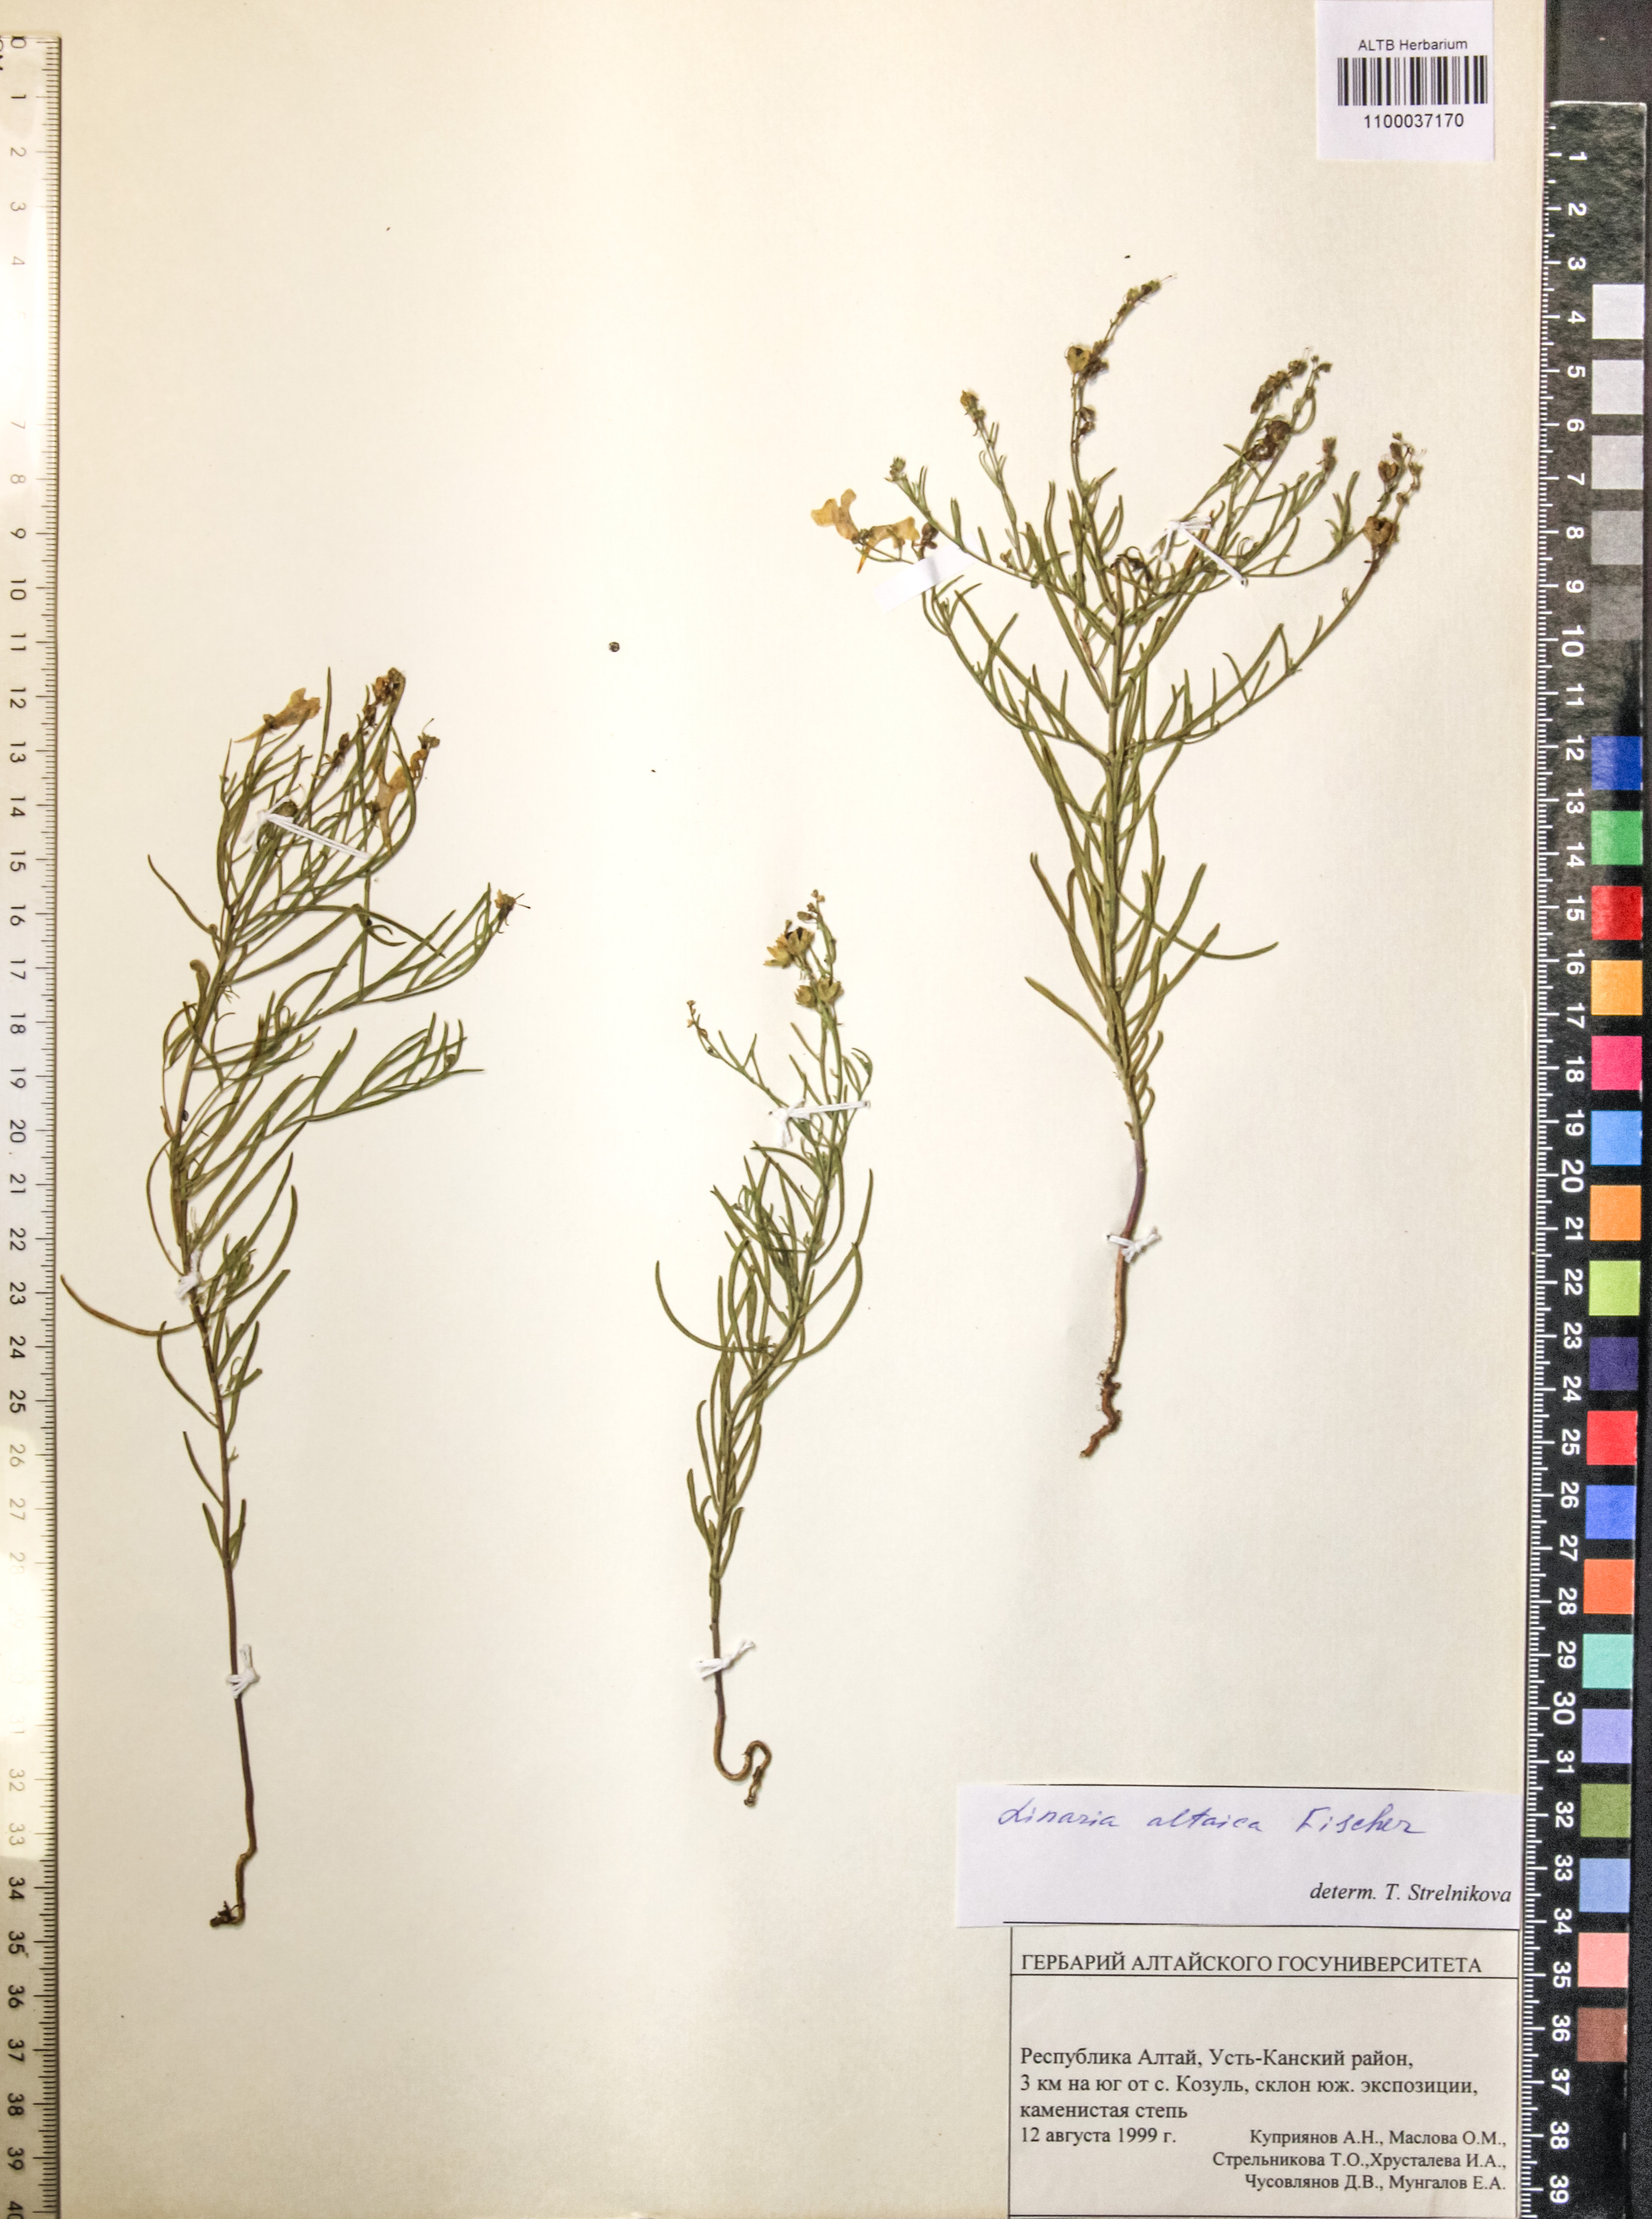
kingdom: Plantae
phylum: Tracheophyta
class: Magnoliopsida
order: Lamiales
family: Plantaginaceae
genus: Linaria
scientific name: Linaria altaica
